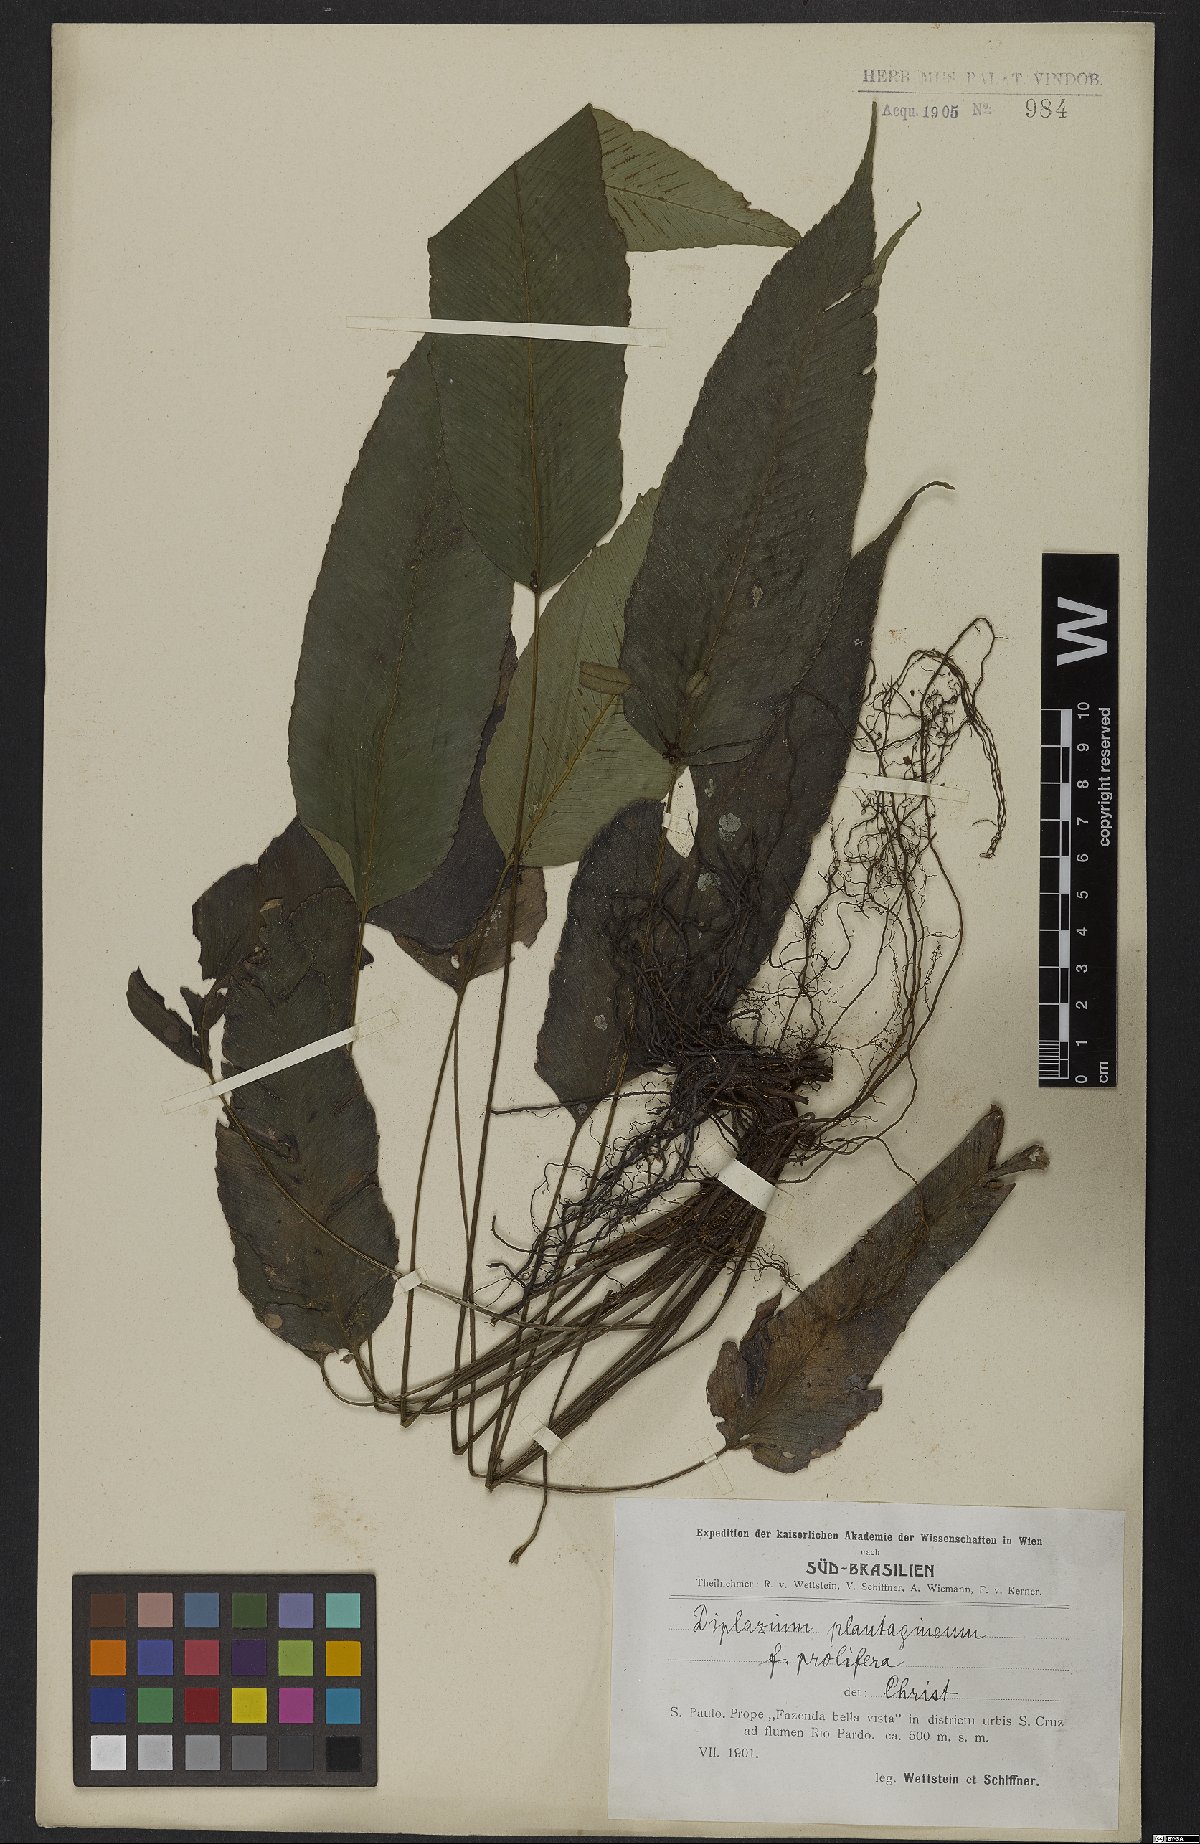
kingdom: Plantae
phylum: Tracheophyta
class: Polypodiopsida
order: Polypodiales
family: Athyriaceae
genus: Diplazium
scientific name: Diplazium plantaginifolium
